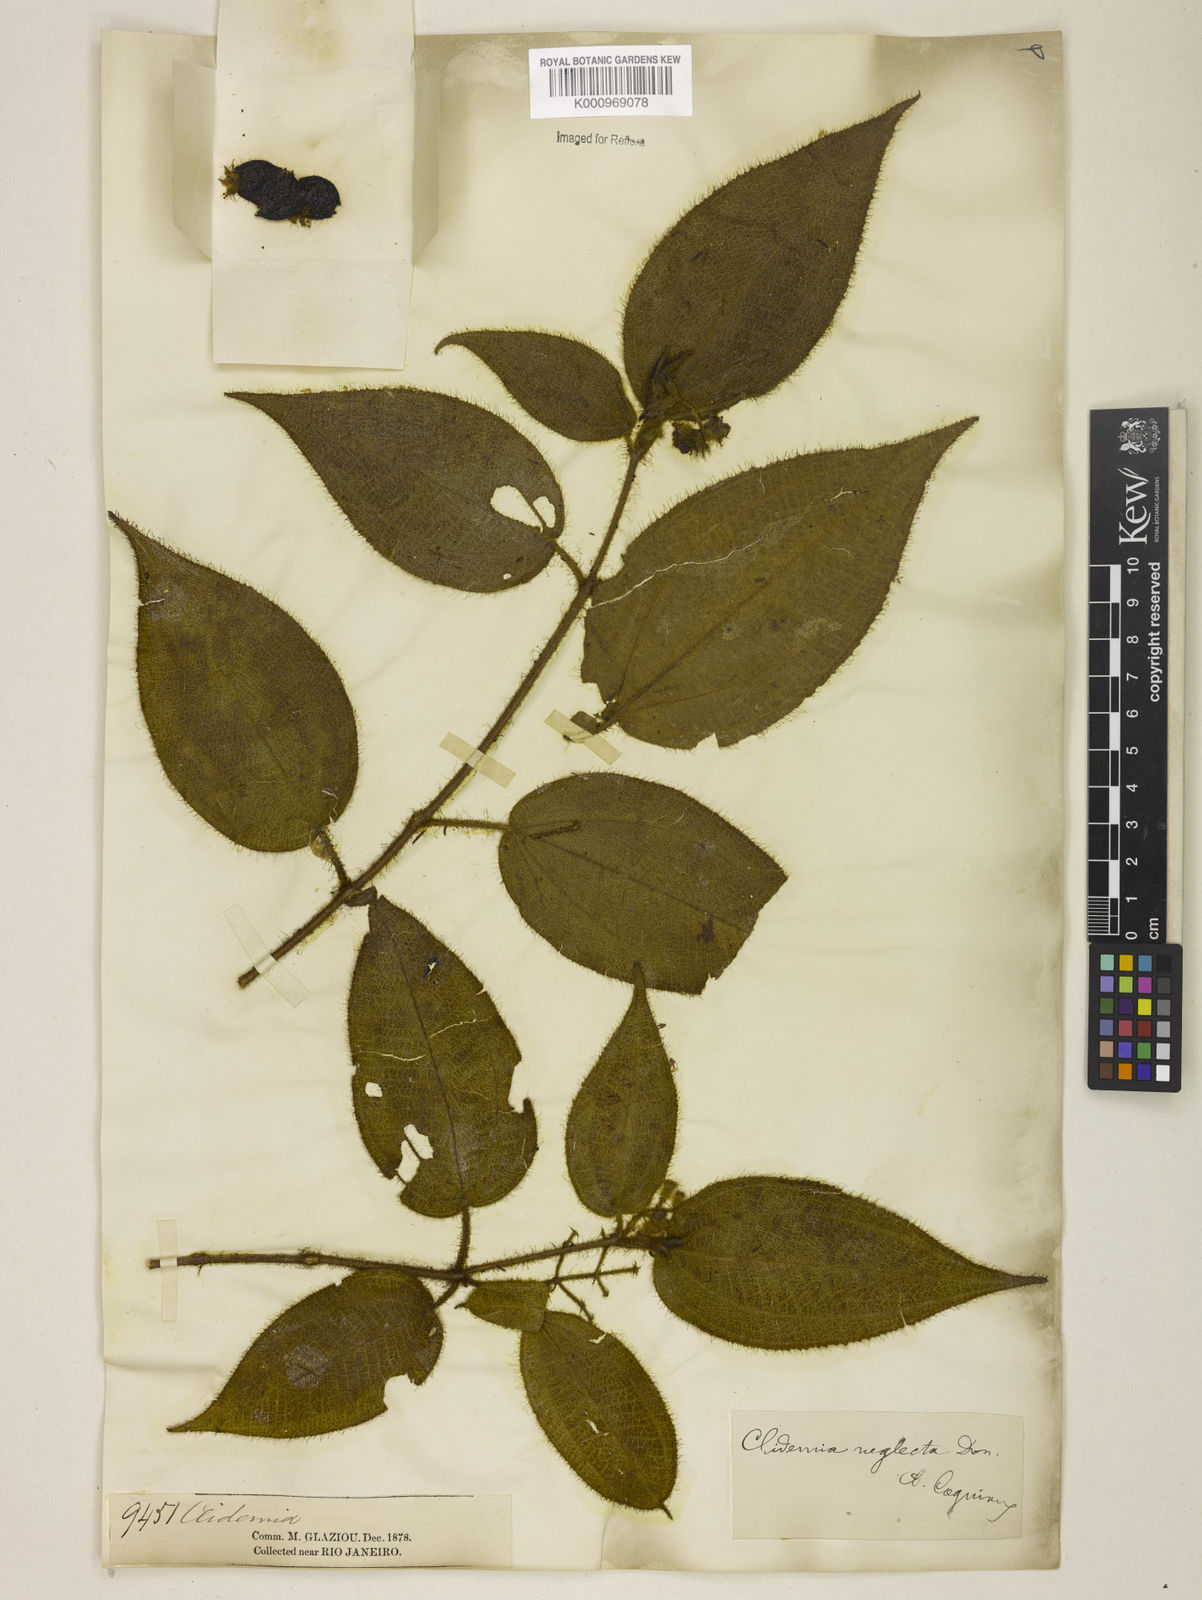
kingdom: Plantae
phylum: Tracheophyta
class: Magnoliopsida
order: Myrtales
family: Melastomataceae
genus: Miconia
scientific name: Miconia dependens
